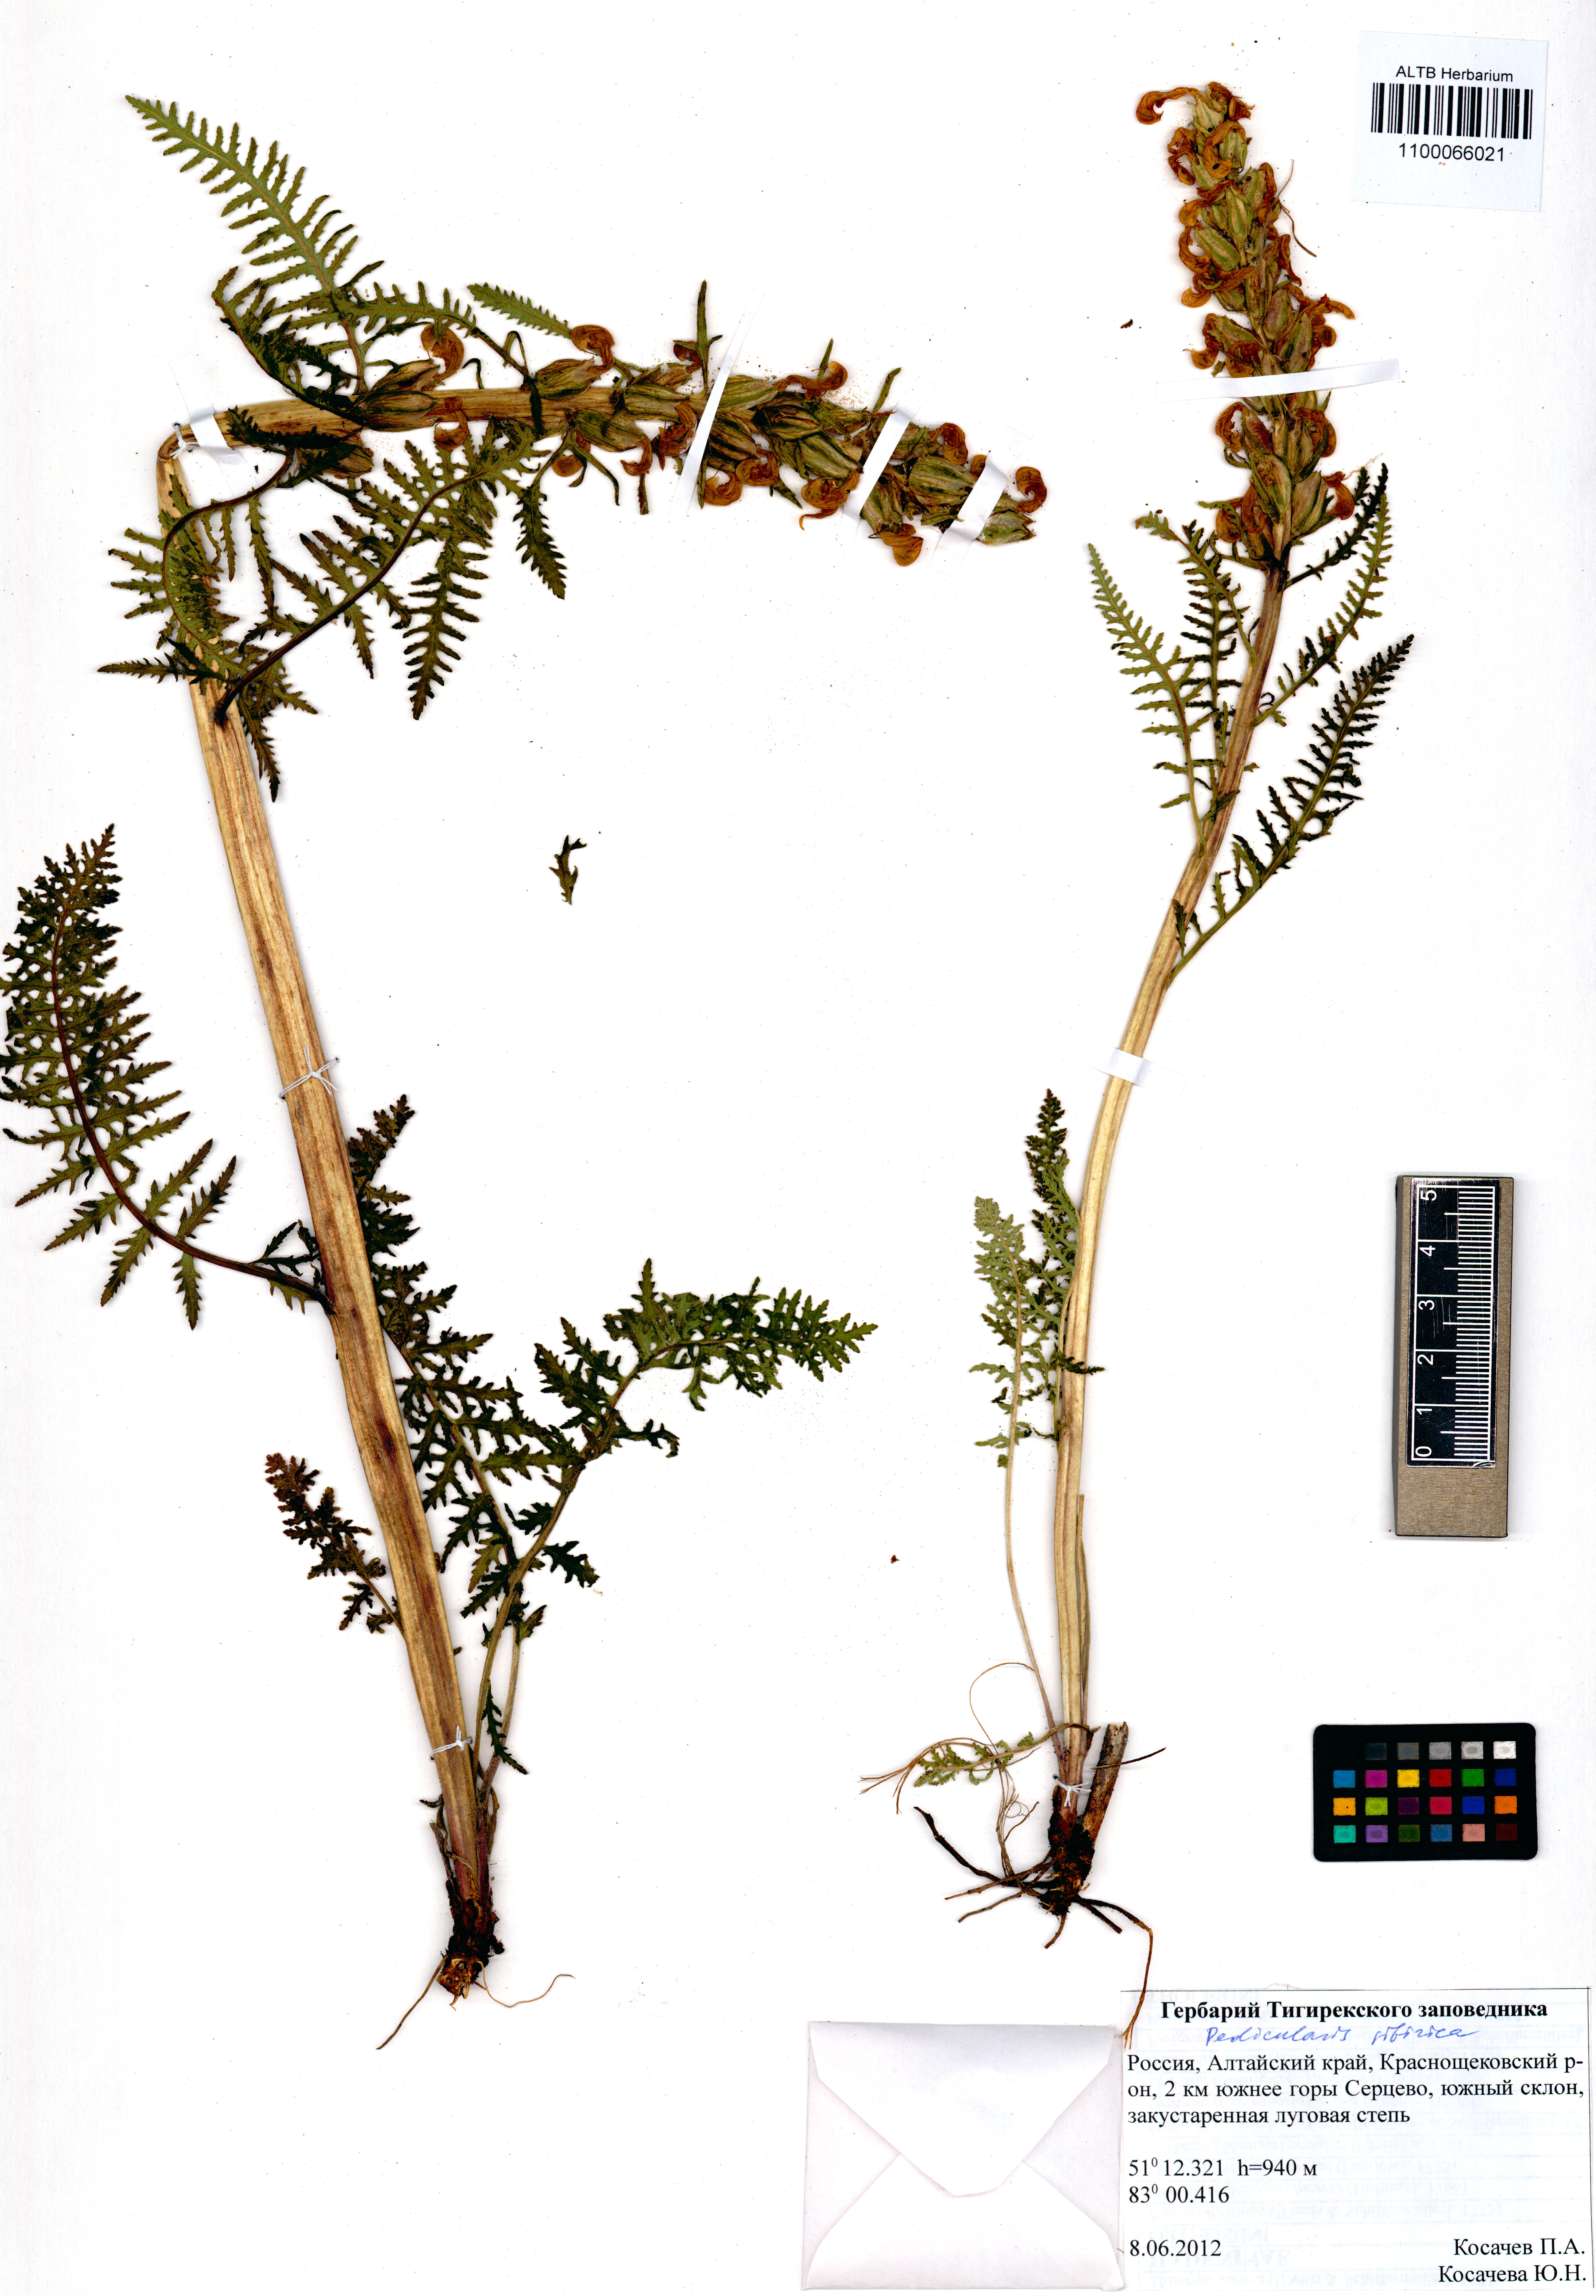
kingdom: Plantae
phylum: Tracheophyta
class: Magnoliopsida
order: Lamiales
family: Orobanchaceae
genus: Pedicularis
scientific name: Pedicularis sibirica
